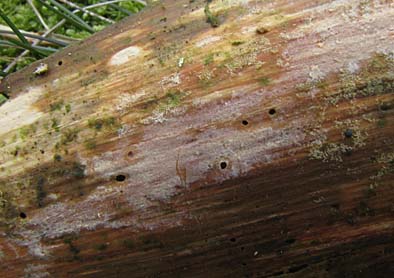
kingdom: Fungi
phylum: Basidiomycota
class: Agaricomycetes
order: Hymenochaetales
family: Rickenellaceae
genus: Globulicium
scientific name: Globulicium hiemale
